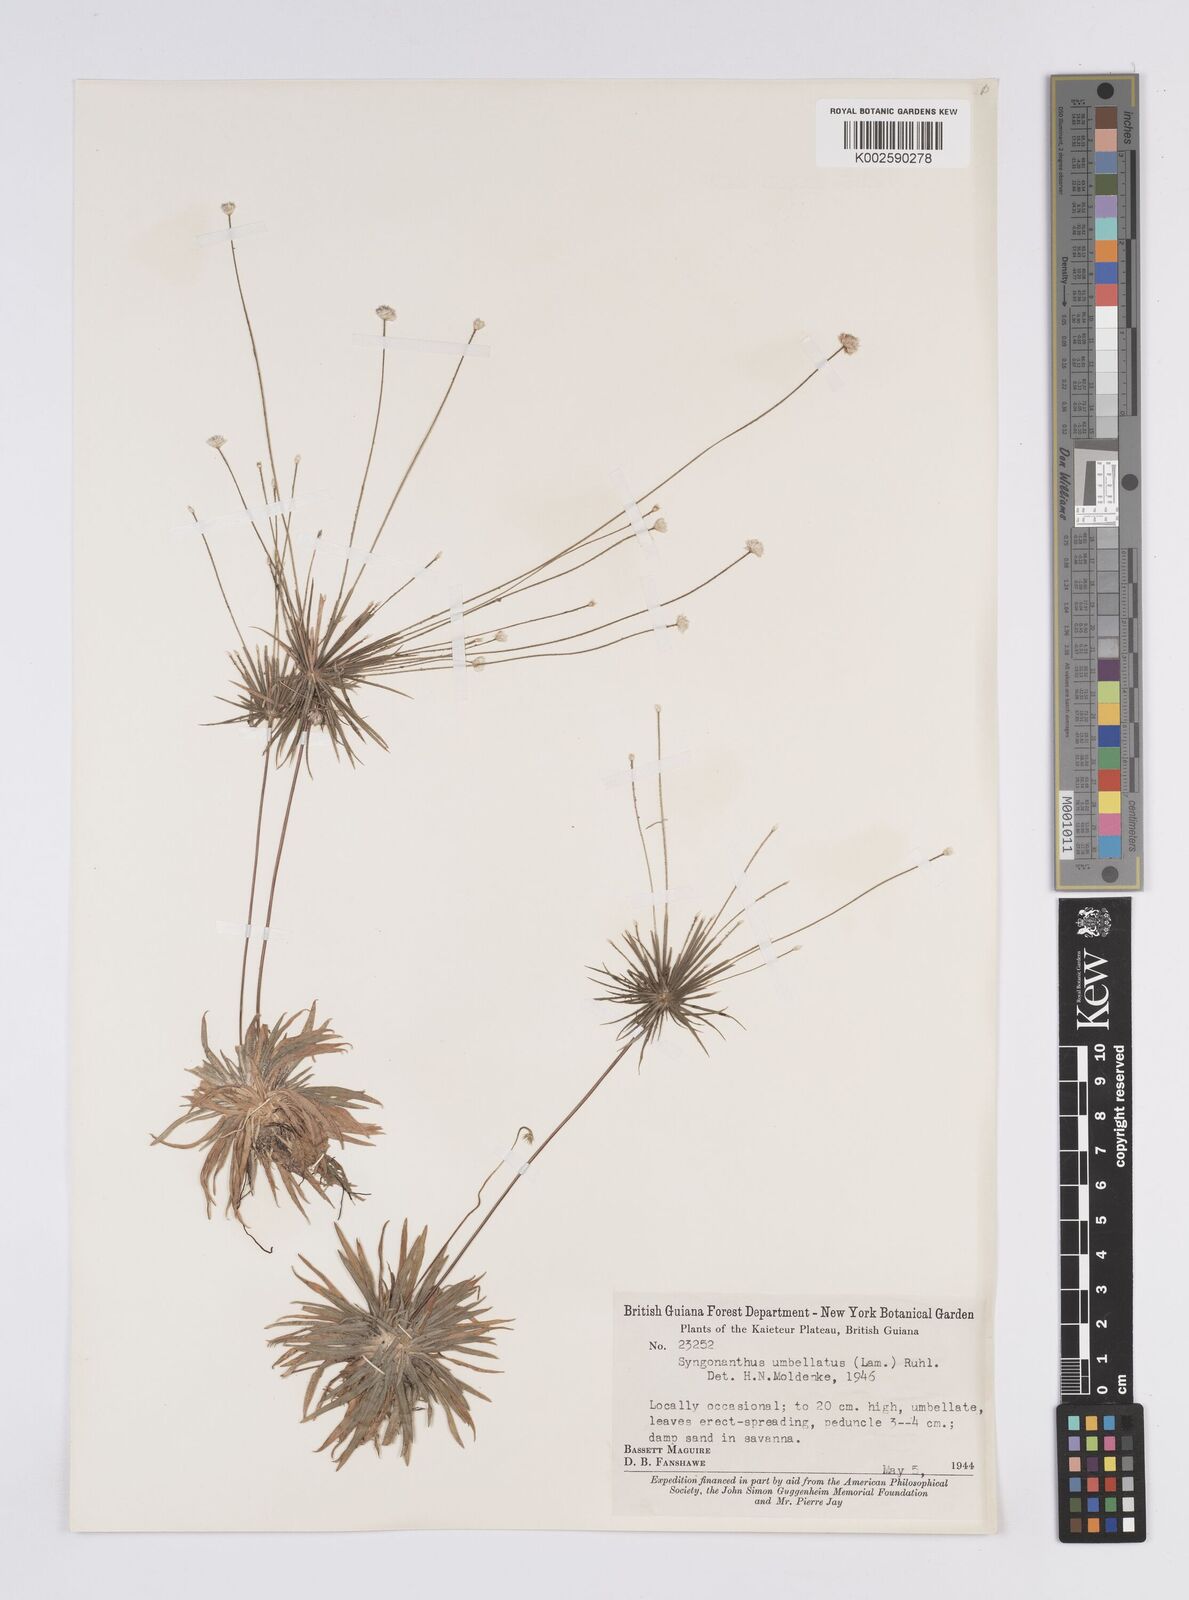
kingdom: Plantae
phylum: Tracheophyta
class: Liliopsida
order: Poales
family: Eriocaulaceae
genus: Syngonanthus
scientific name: Syngonanthus umbellatus
